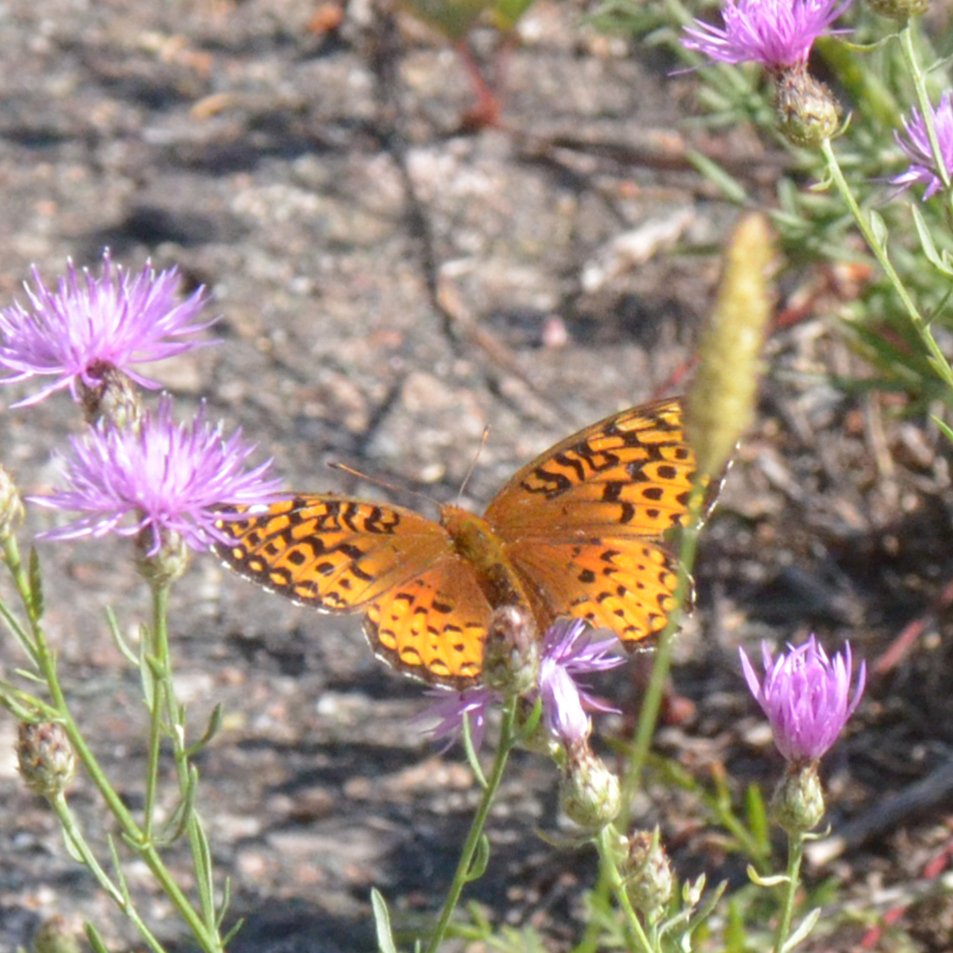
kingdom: Animalia
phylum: Arthropoda
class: Insecta
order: Lepidoptera
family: Nymphalidae
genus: Speyeria
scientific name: Speyeria atlantis
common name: Atlantis Fritillary
